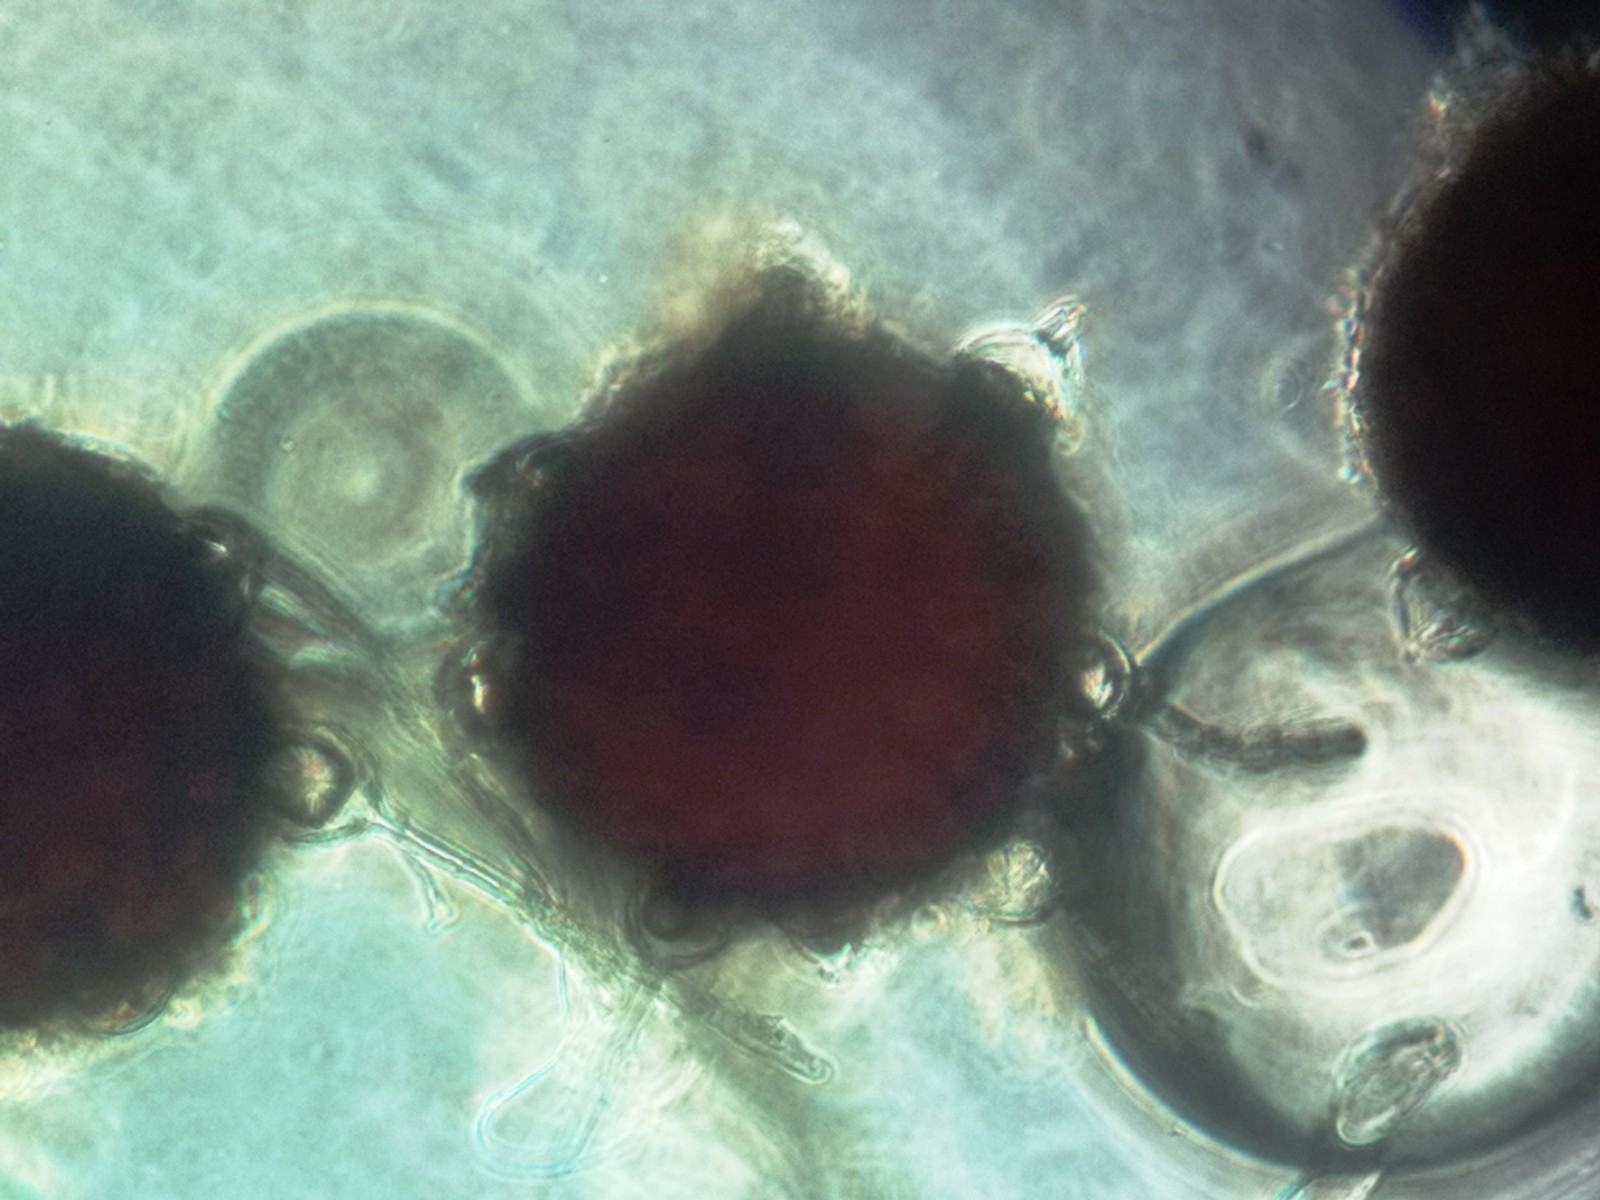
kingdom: Fungi
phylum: Ascomycota
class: Leotiomycetes
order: Helotiales
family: Erysiphaceae
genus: Phyllactinia
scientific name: Phyllactinia mali
